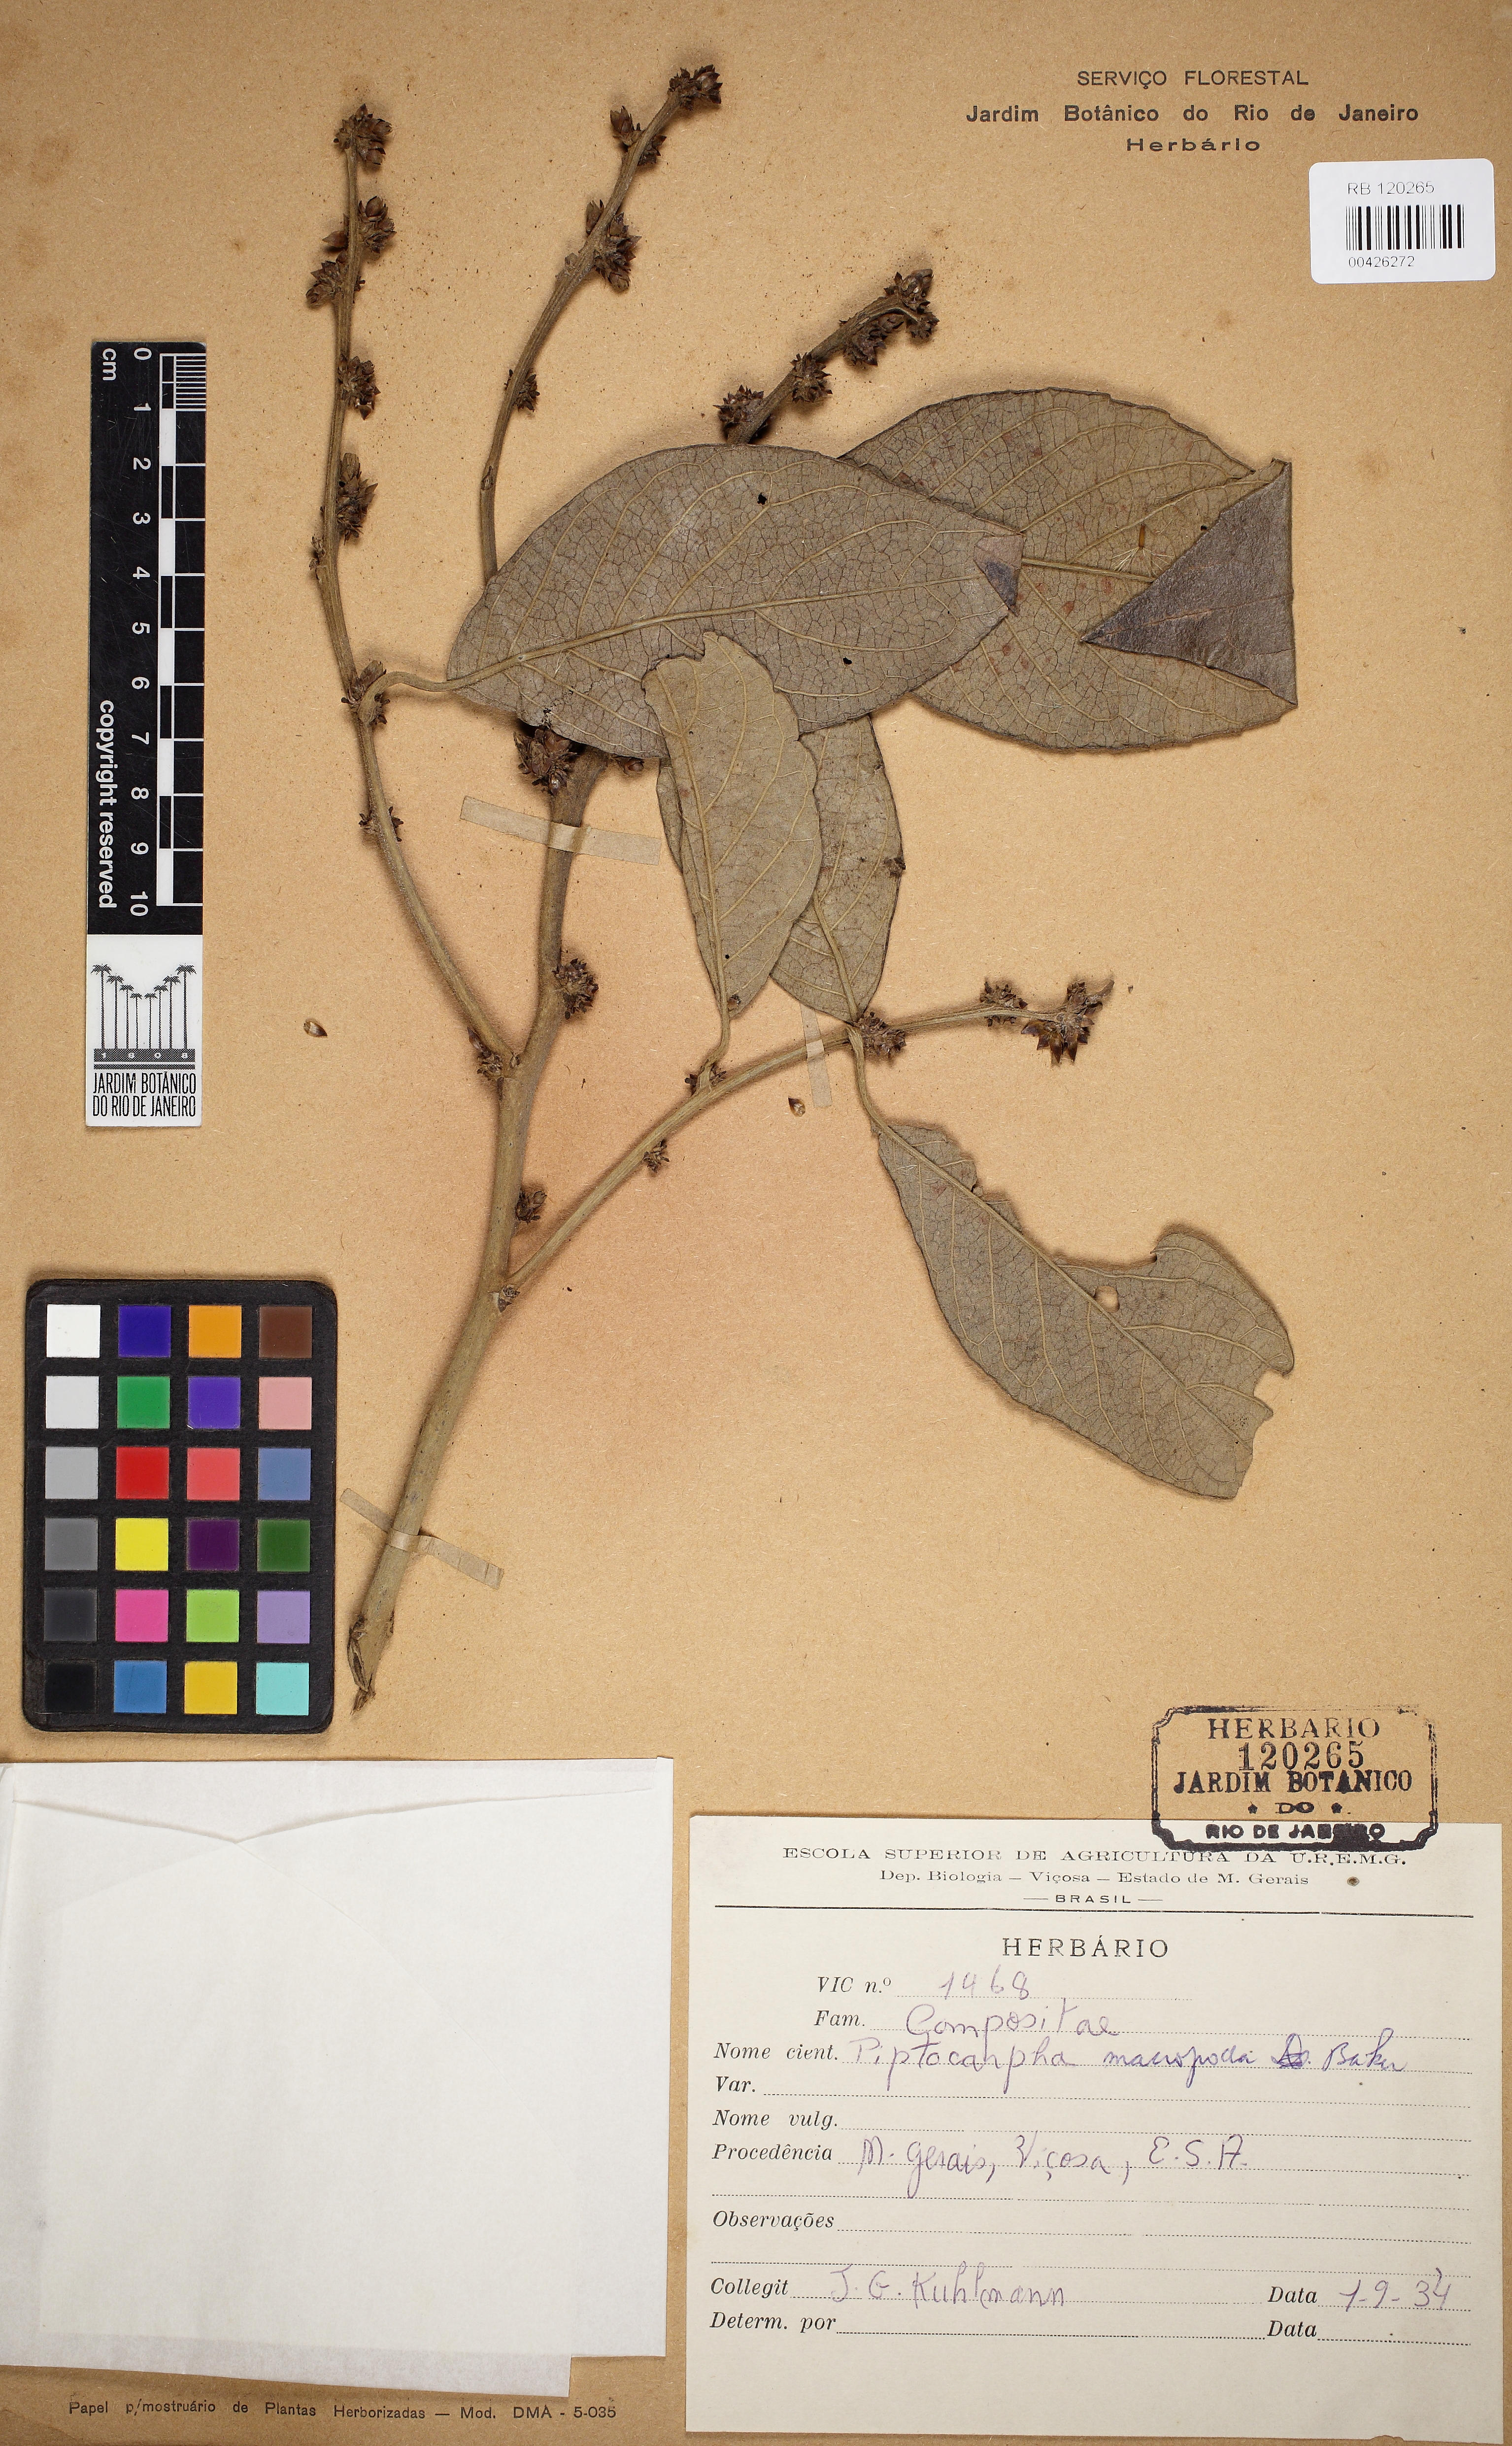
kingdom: Plantae
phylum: Tracheophyta
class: Magnoliopsida
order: Asterales
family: Asteraceae
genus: Piptocarpha
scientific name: Piptocarpha macropoda
